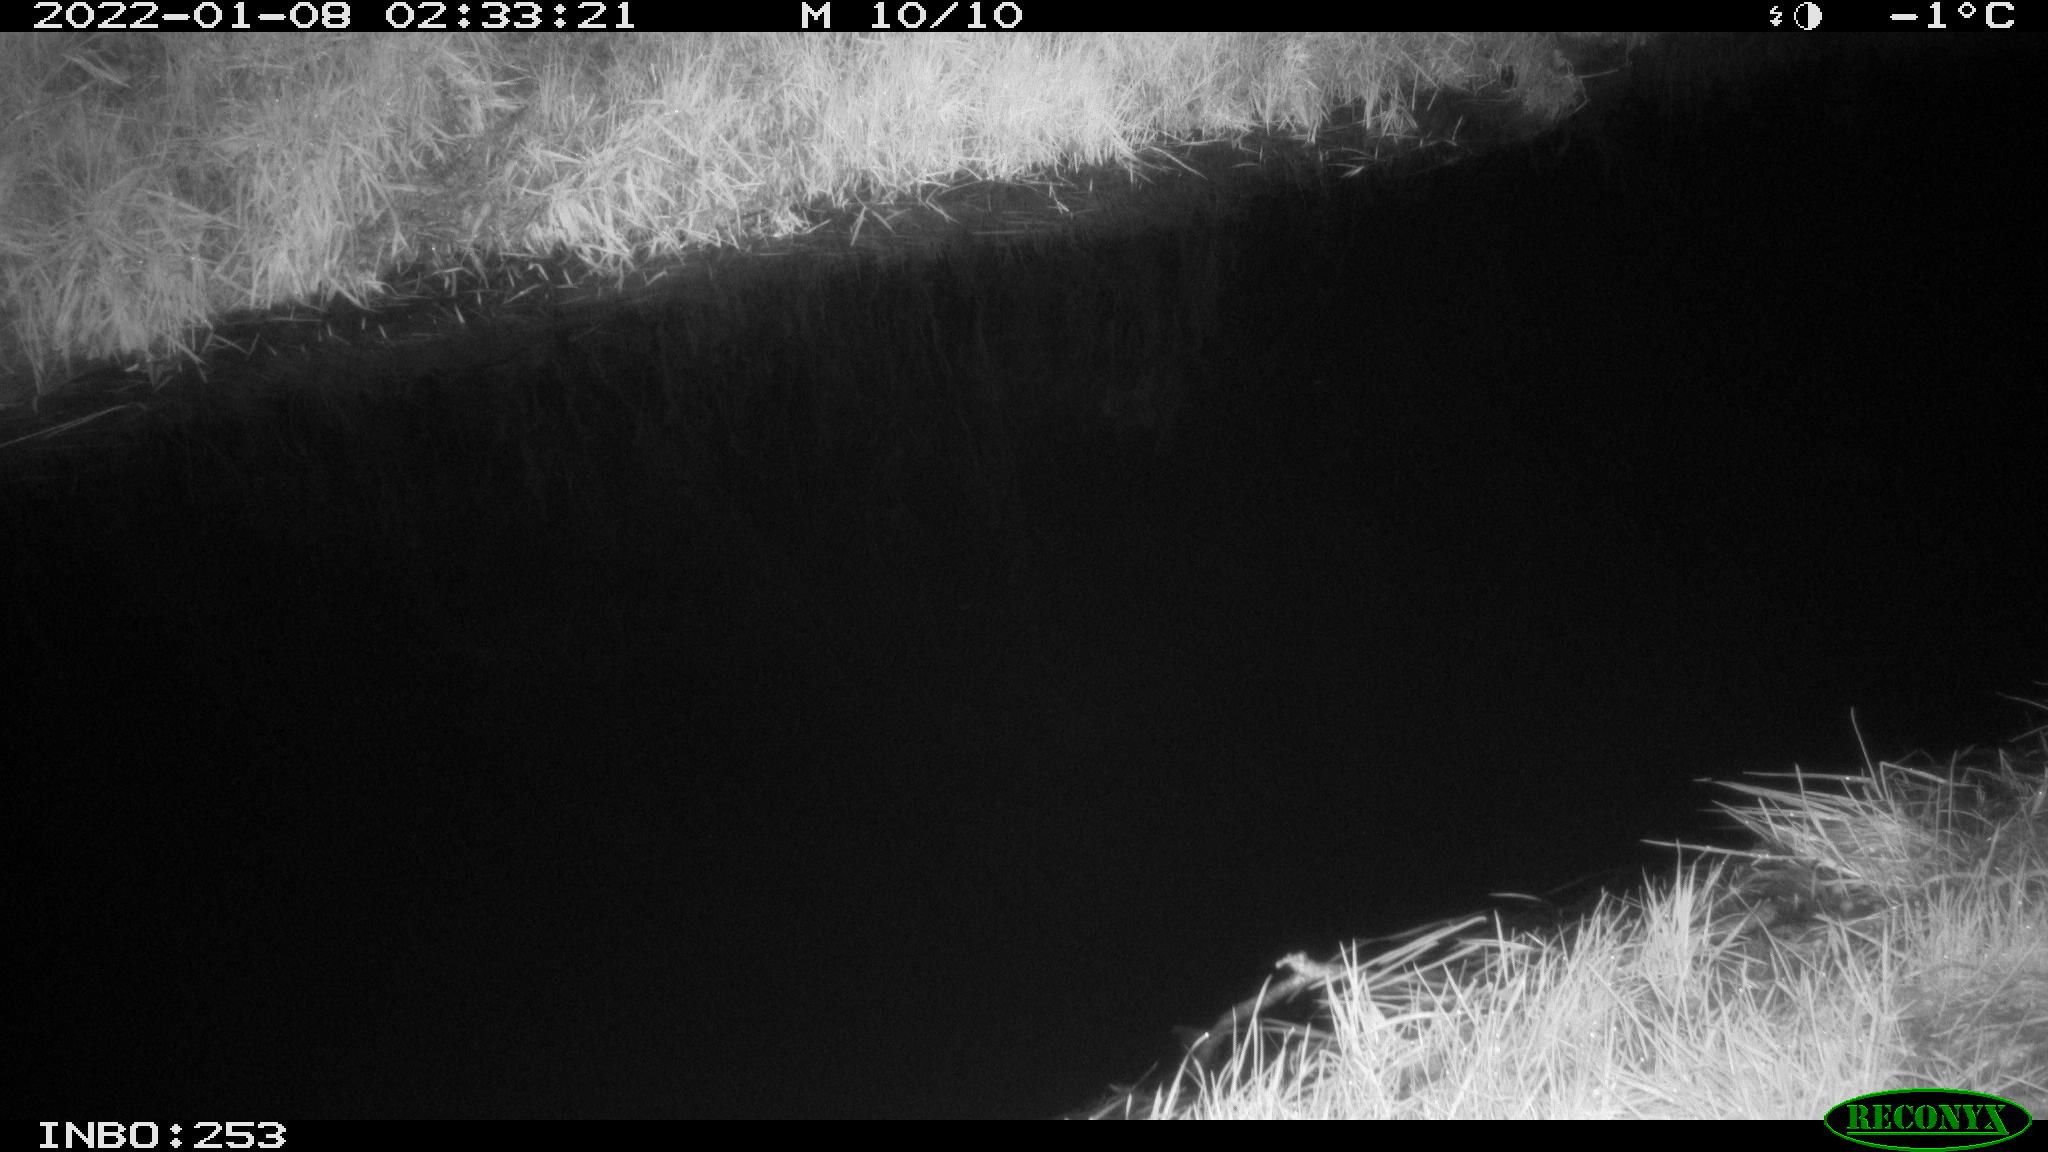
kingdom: Animalia
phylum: Chordata
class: Mammalia
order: Lagomorpha
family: Leporidae
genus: Oryctolagus
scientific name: Oryctolagus cuniculus
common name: European rabbit
